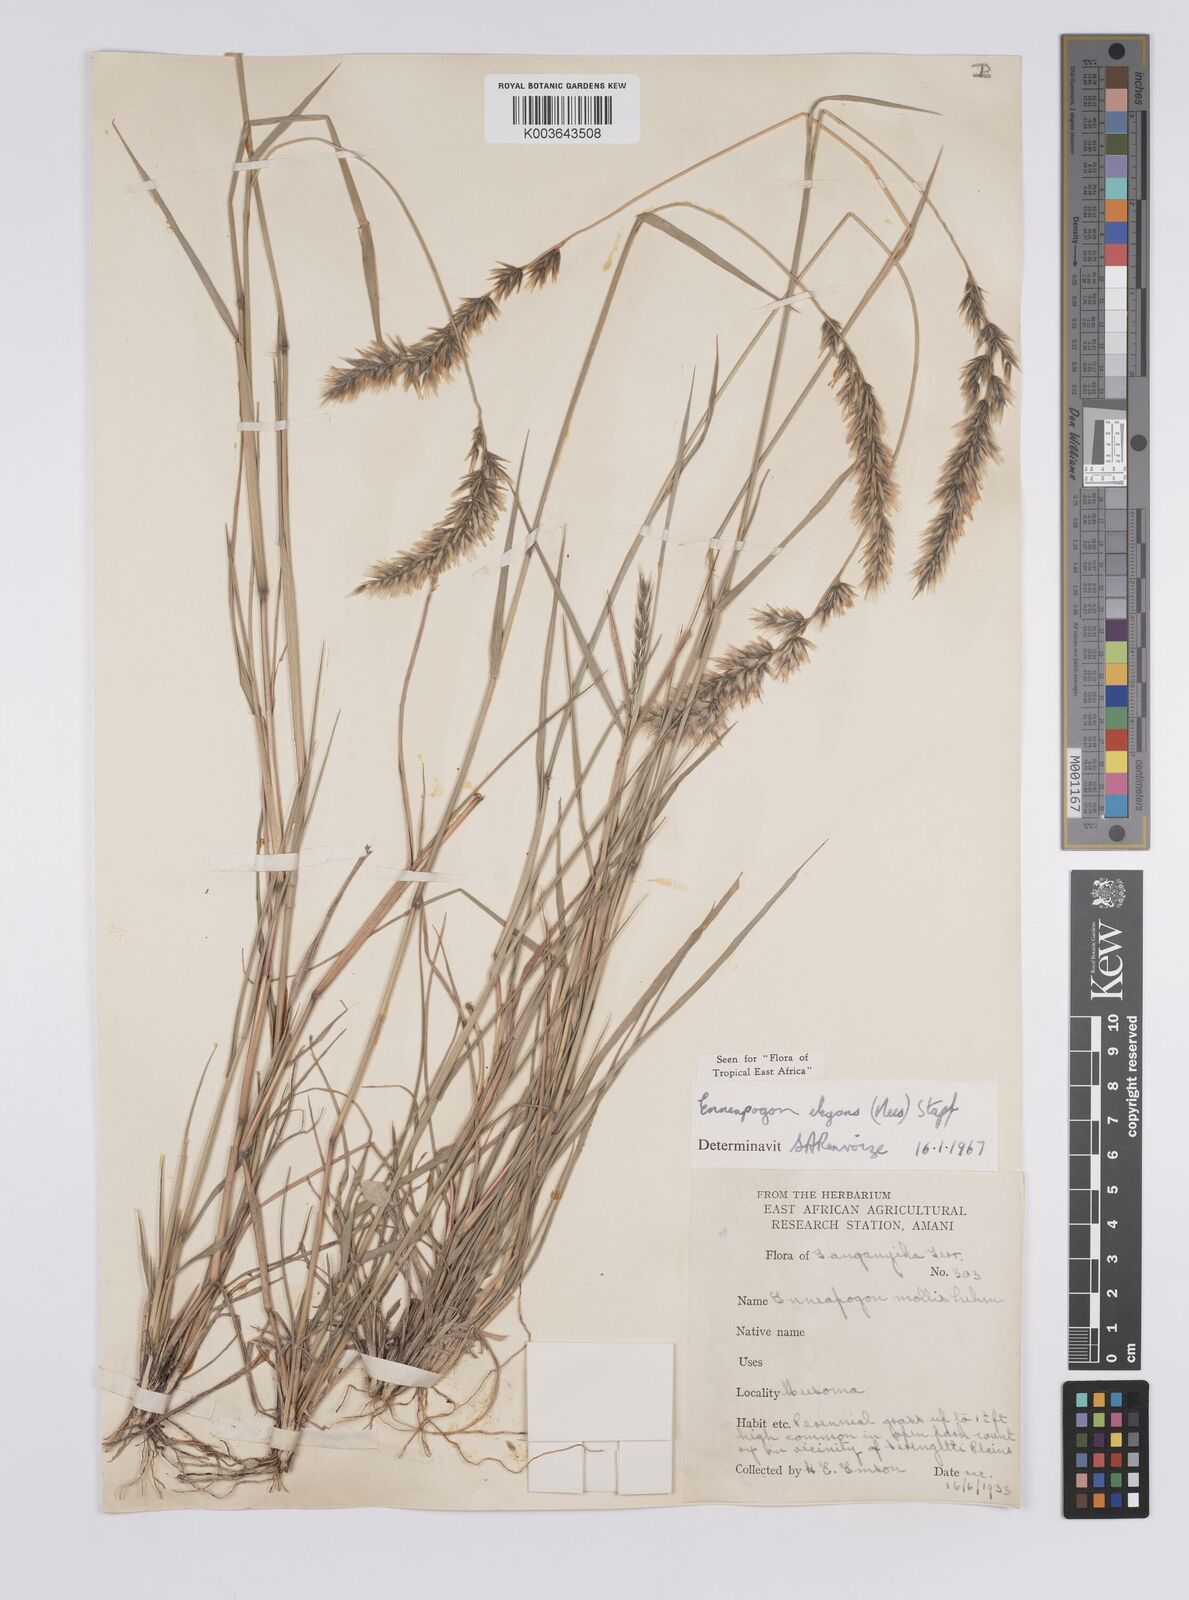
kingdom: Plantae
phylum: Tracheophyta
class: Liliopsida
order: Poales
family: Poaceae
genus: Enneapogon
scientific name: Enneapogon persicus
